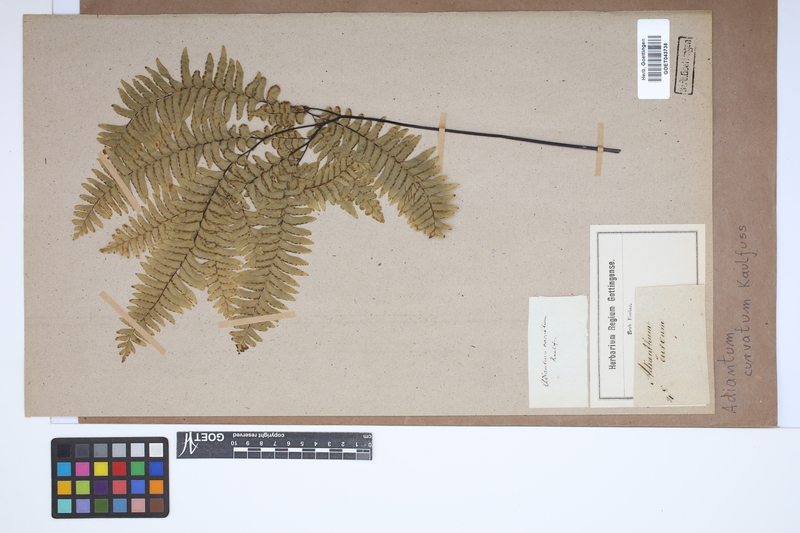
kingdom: Plantae
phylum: Tracheophyta
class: Polypodiopsida
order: Polypodiales
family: Pteridaceae
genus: Adiantum
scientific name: Adiantum curvatum
